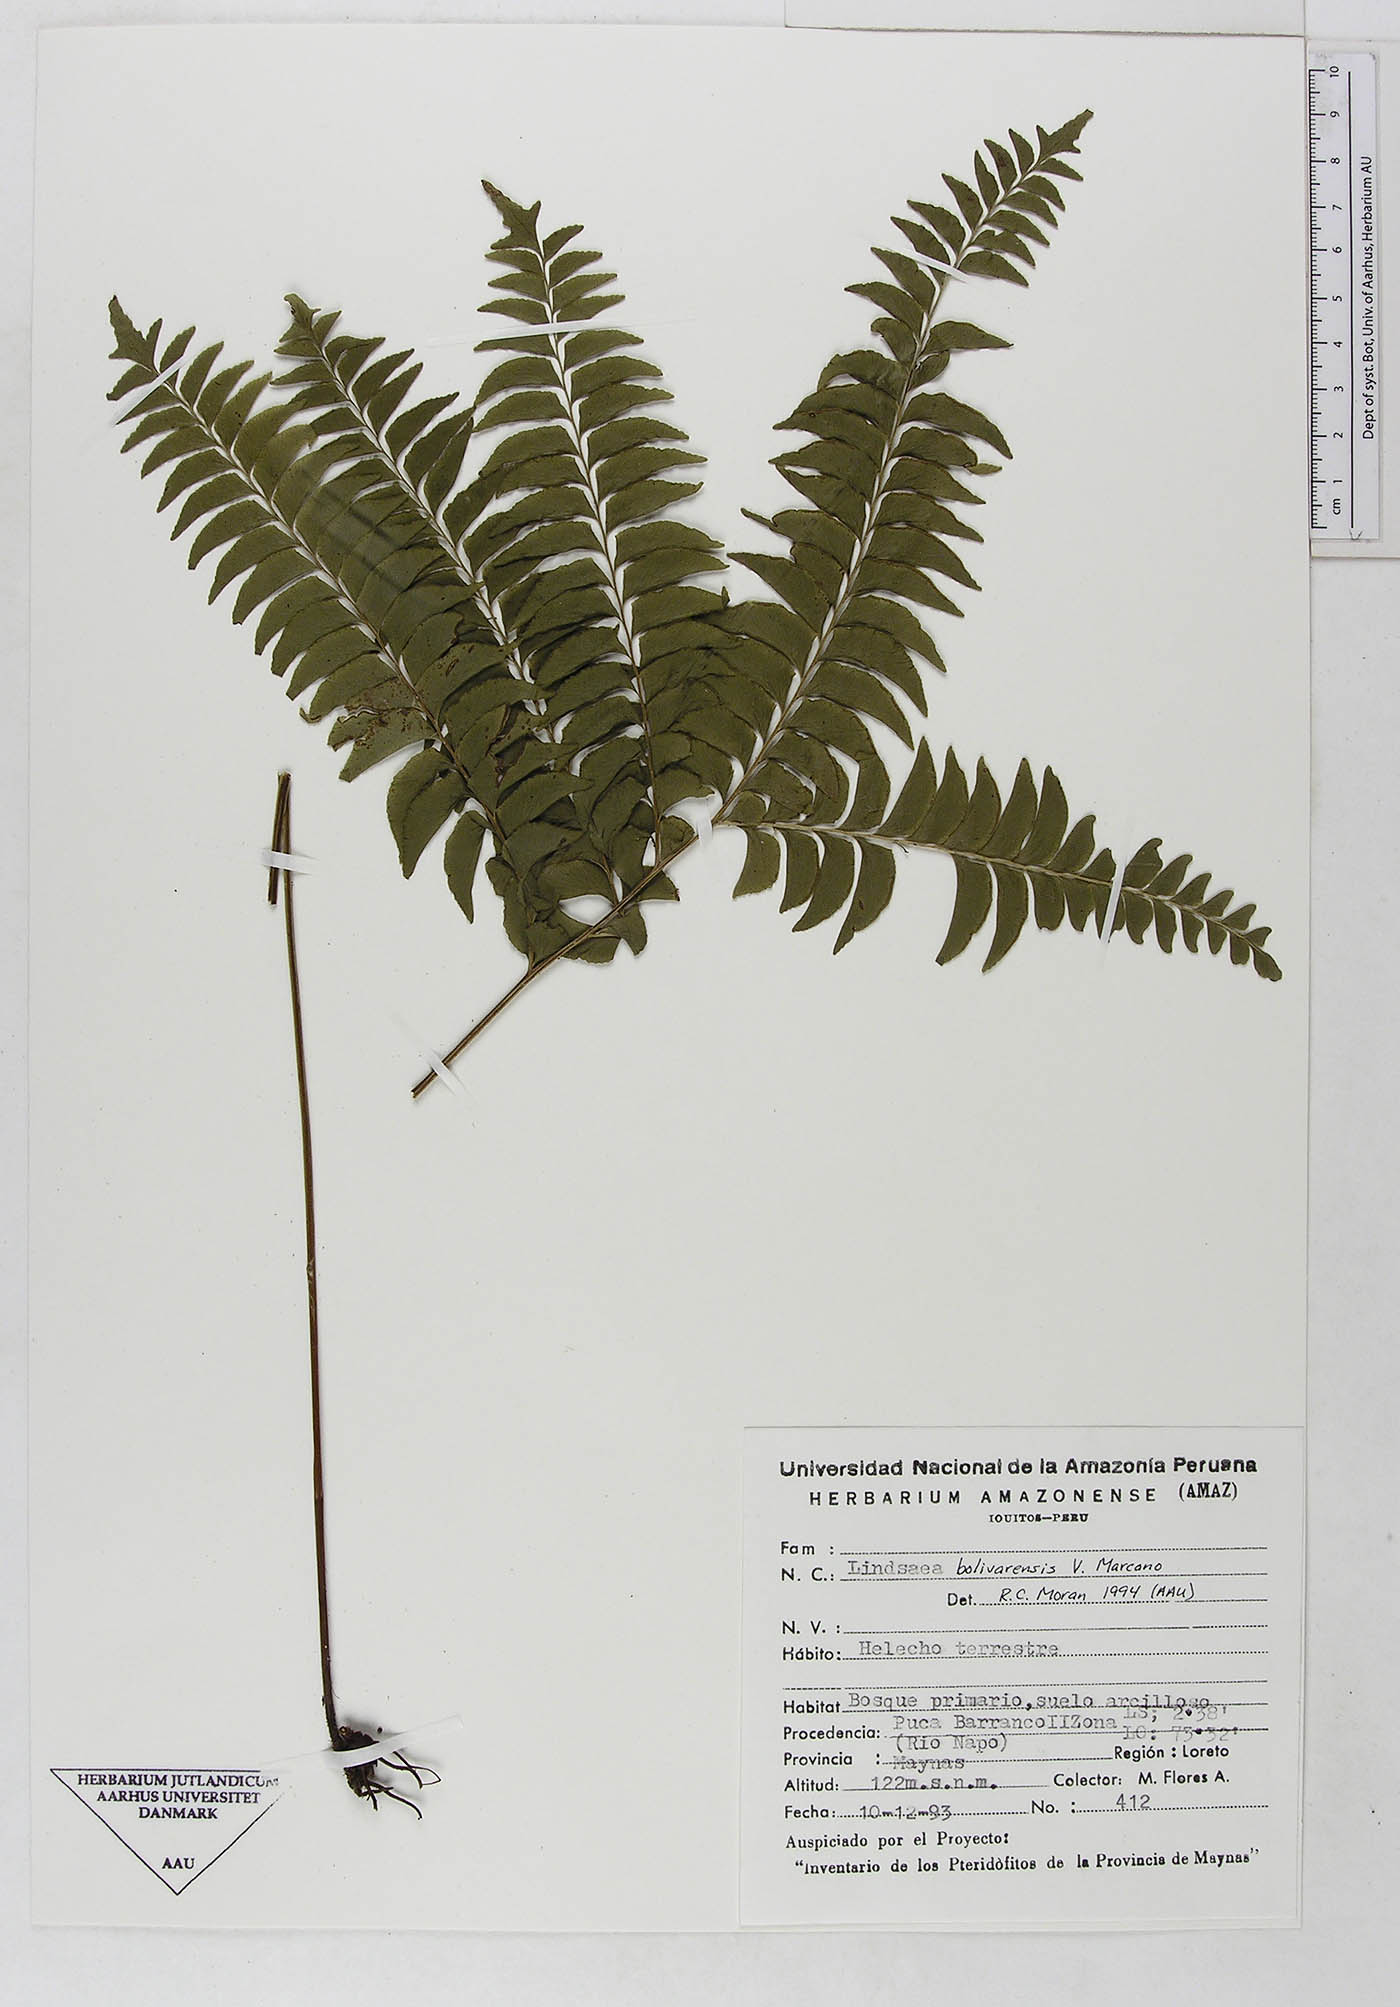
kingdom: Plantae
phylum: Tracheophyta
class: Polypodiopsida
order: Polypodiales
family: Lindsaeaceae
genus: Lindsaea
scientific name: Lindsaea bolivarensis
